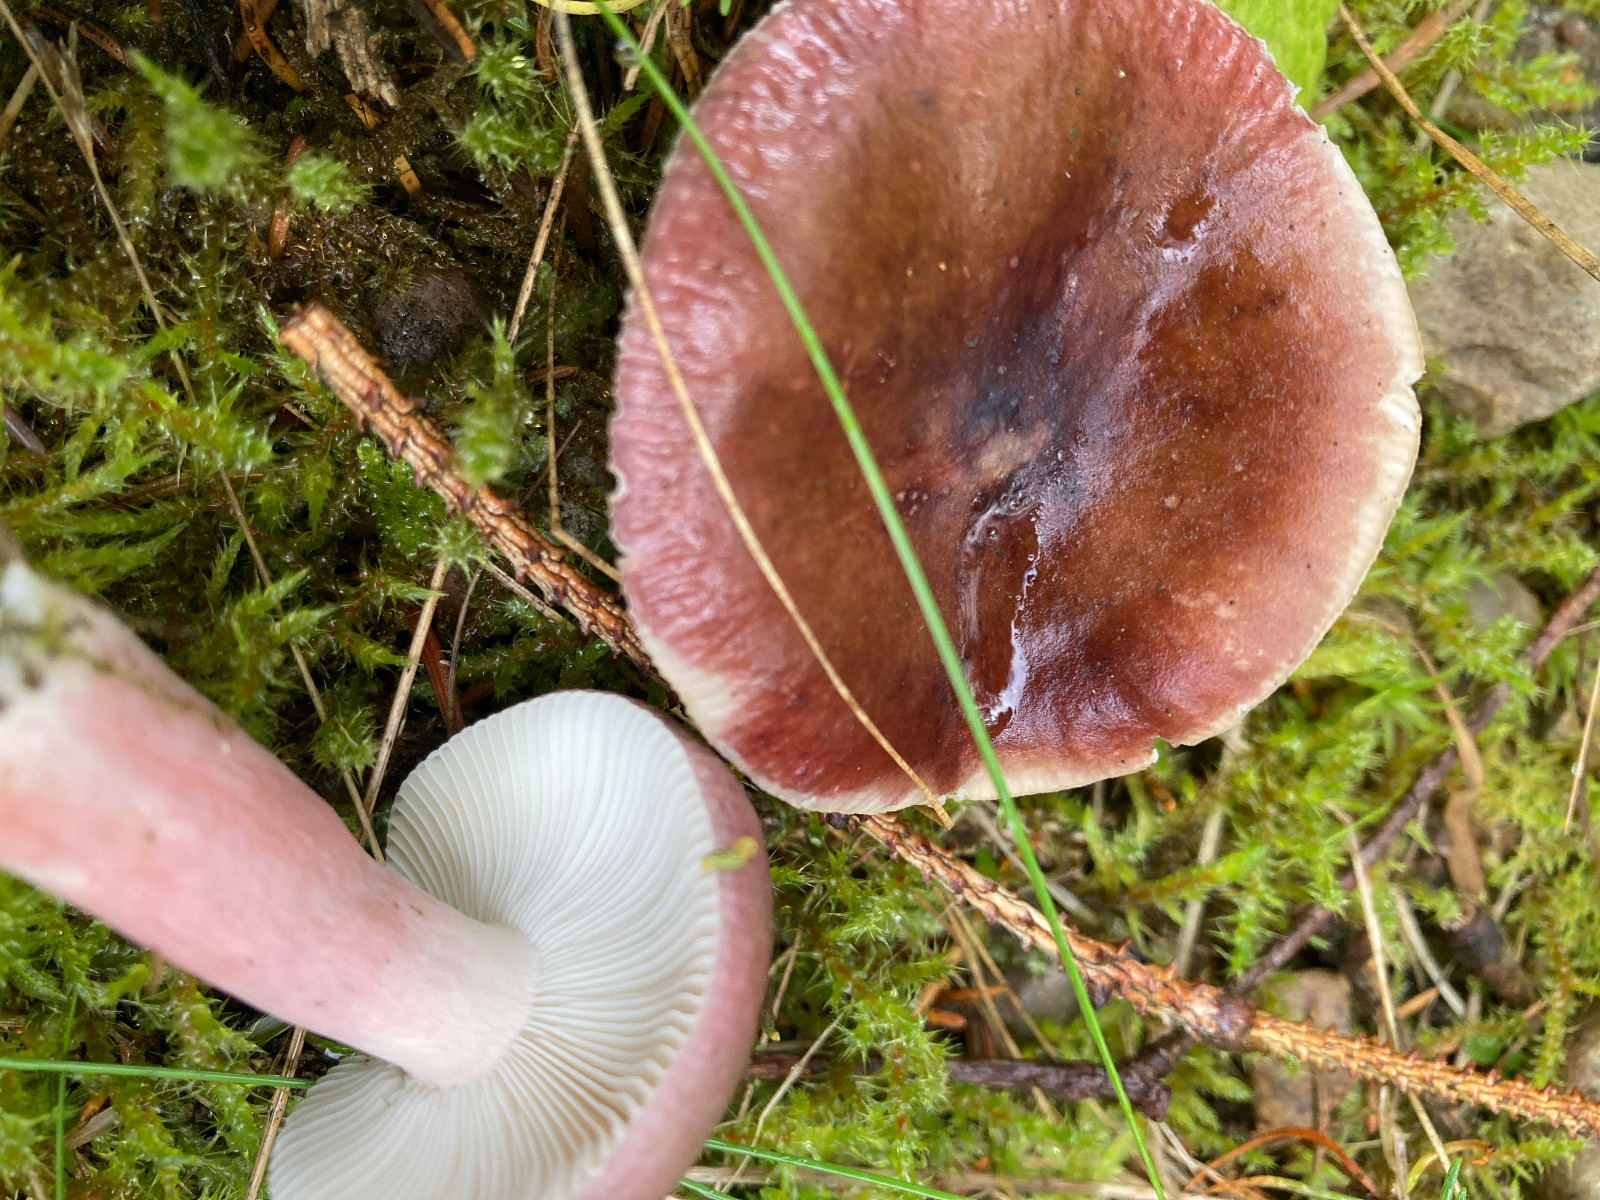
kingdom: Fungi
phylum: Basidiomycota
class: Agaricomycetes
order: Russulales
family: Russulaceae
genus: Russula
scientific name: Russula queletii
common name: Quélets skørhat
